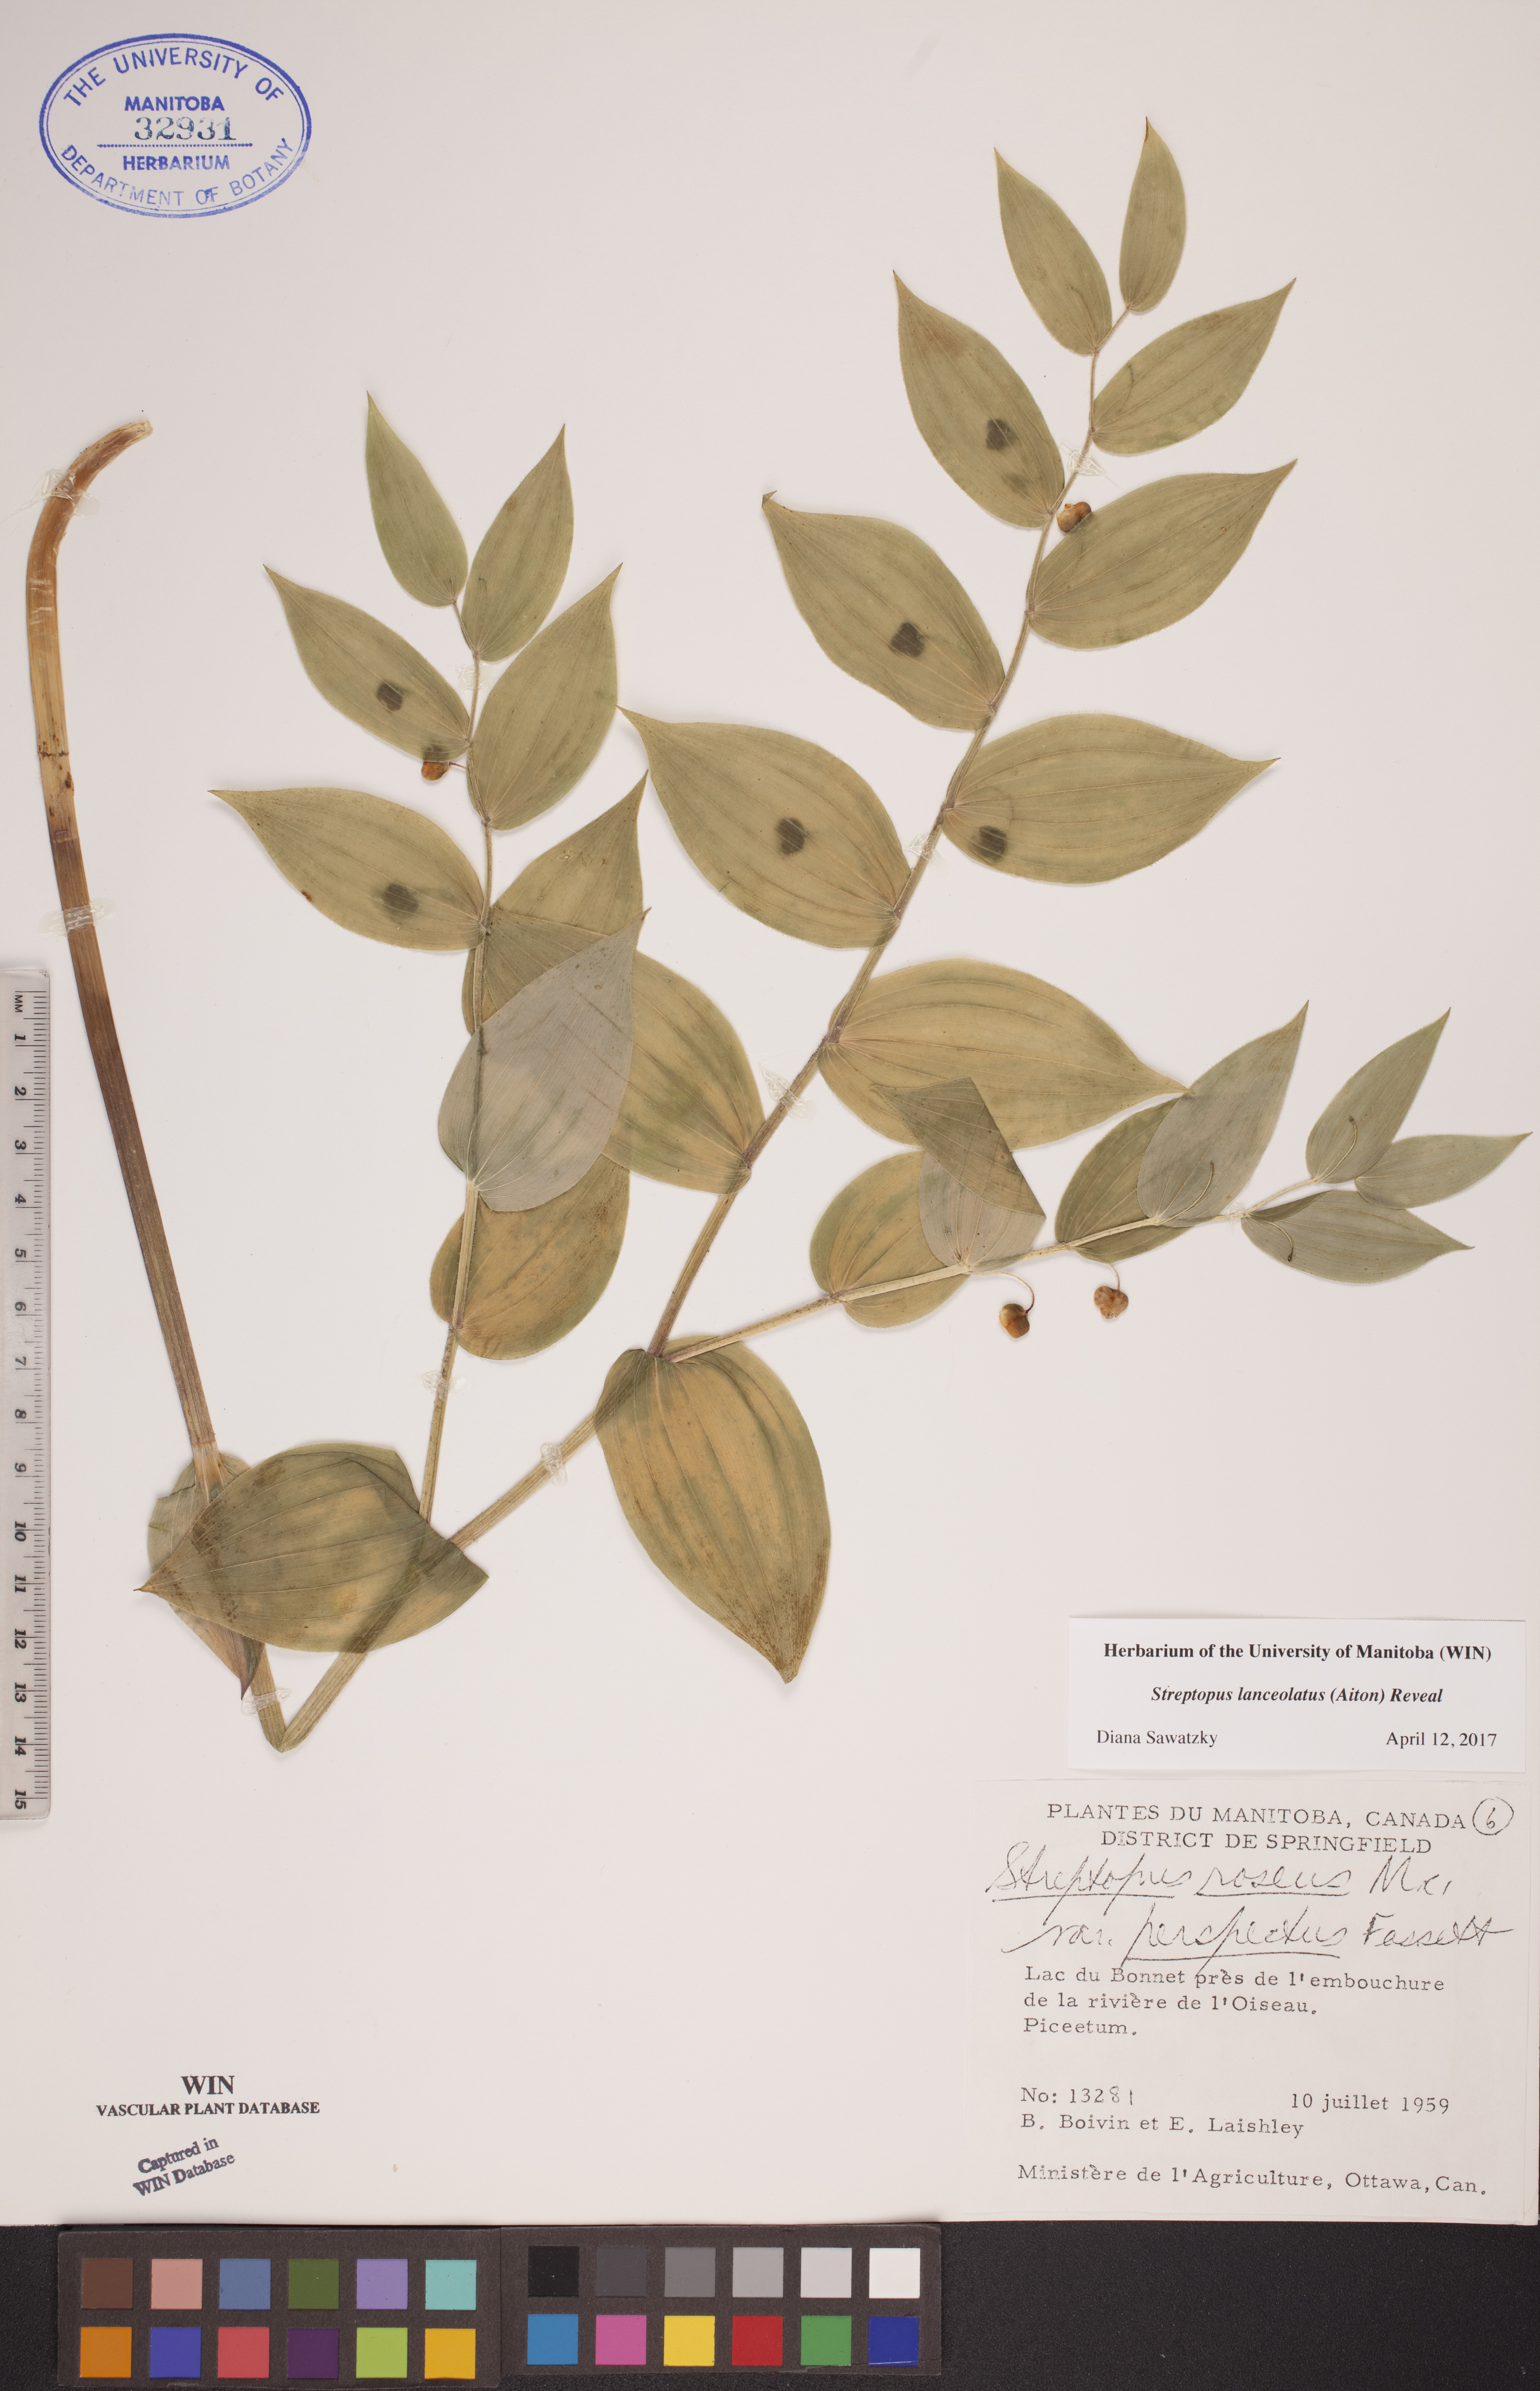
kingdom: Plantae
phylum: Tracheophyta
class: Liliopsida
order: Liliales
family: Liliaceae
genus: Streptopus
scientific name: Streptopus lanceolatus
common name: Rose mandarin
